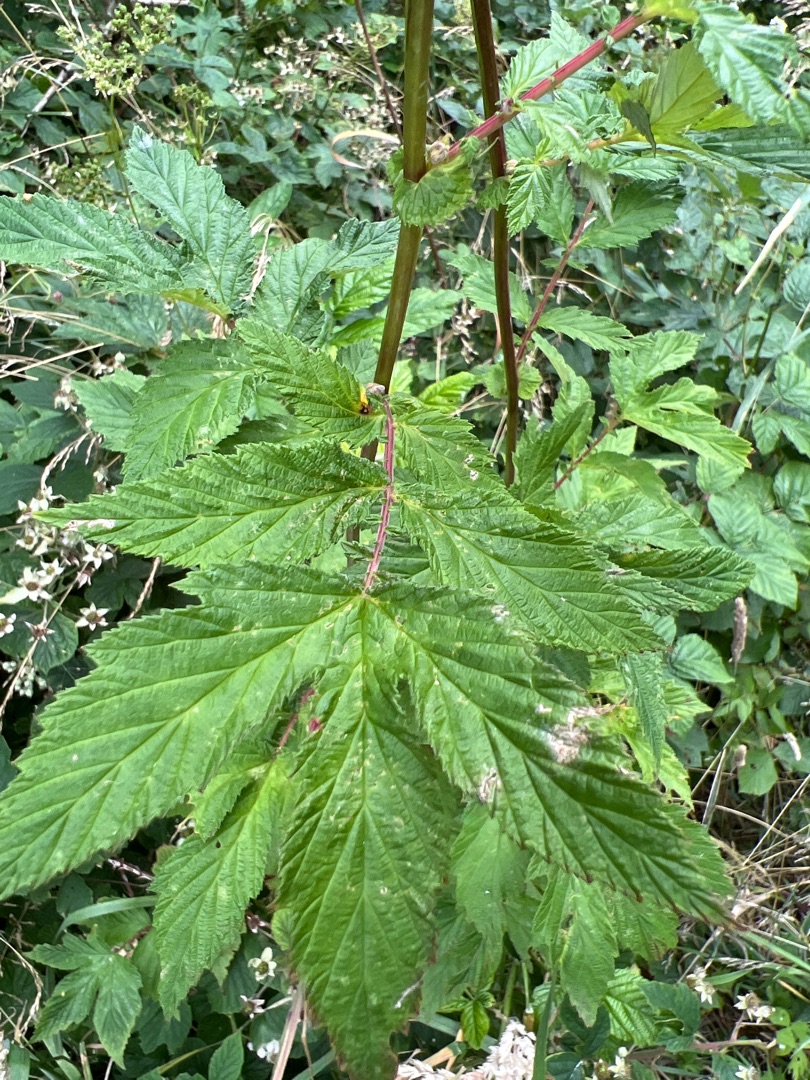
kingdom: Plantae
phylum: Tracheophyta
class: Magnoliopsida
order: Rosales
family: Rosaceae
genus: Filipendula
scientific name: Filipendula ulmaria
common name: Almindelig mjødurt
